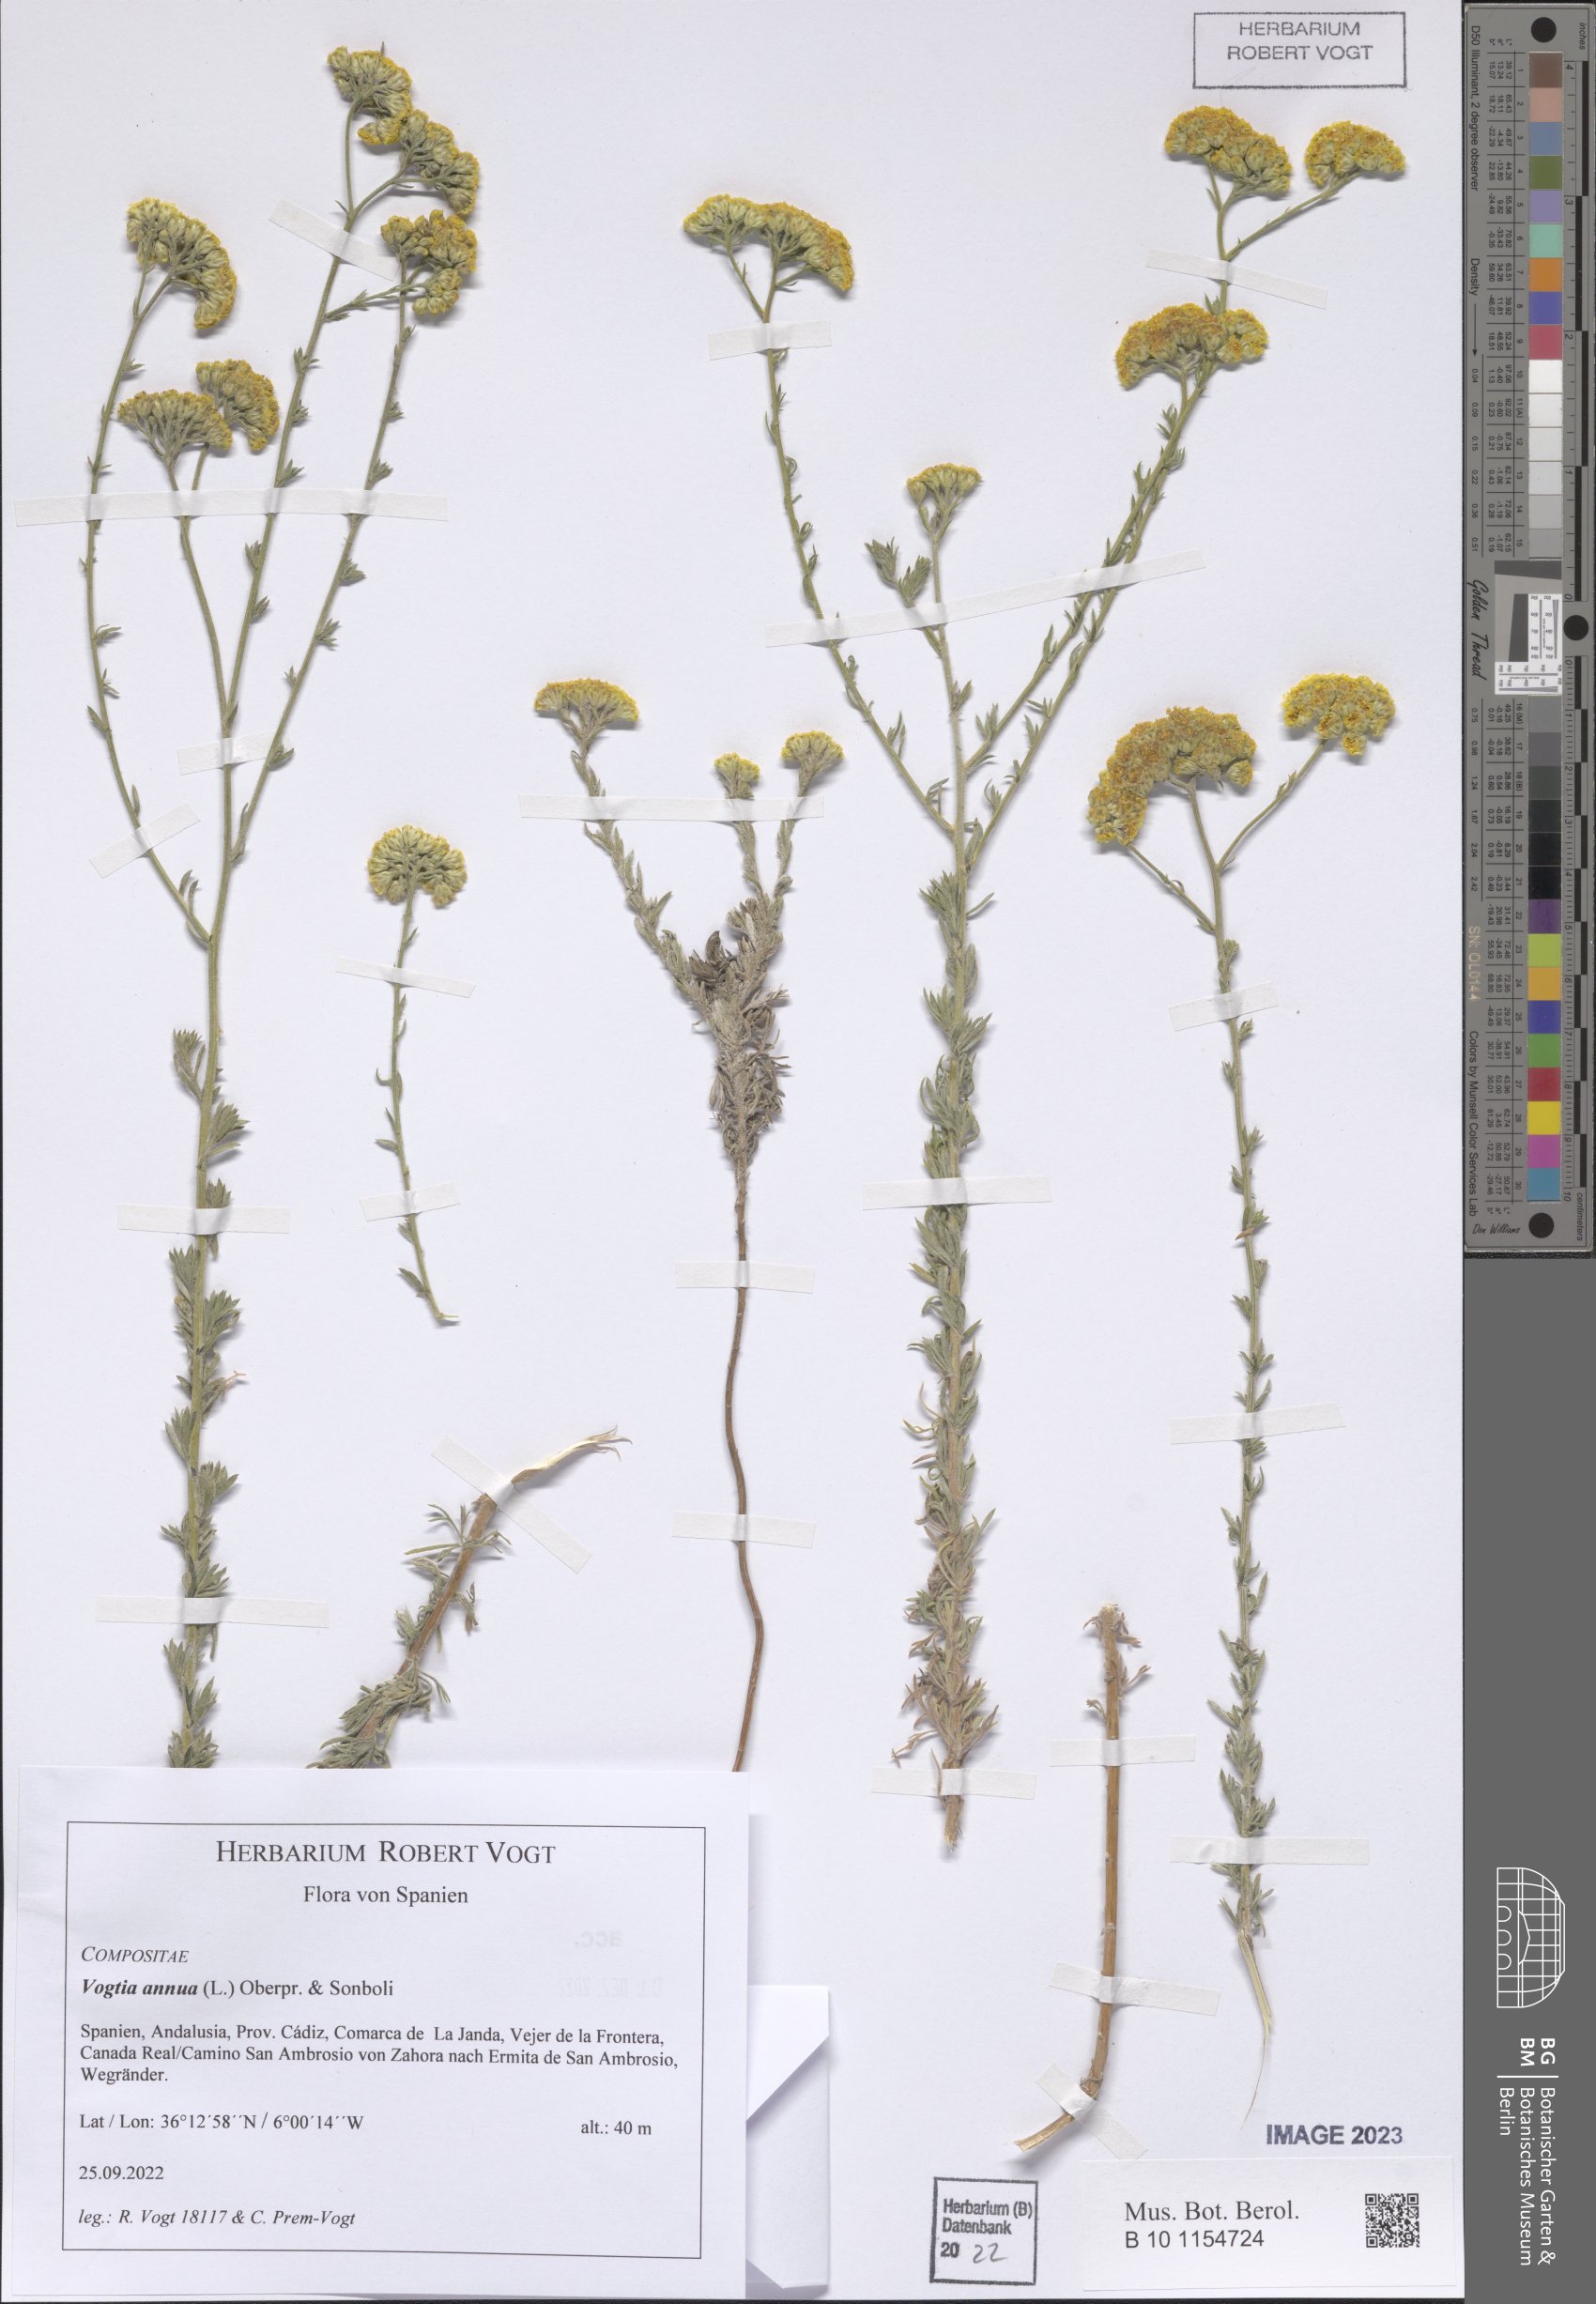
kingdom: Plantae
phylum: Tracheophyta
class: Magnoliopsida
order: Asterales
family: Asteraceae
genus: Vogtia
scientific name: Vogtia annua
